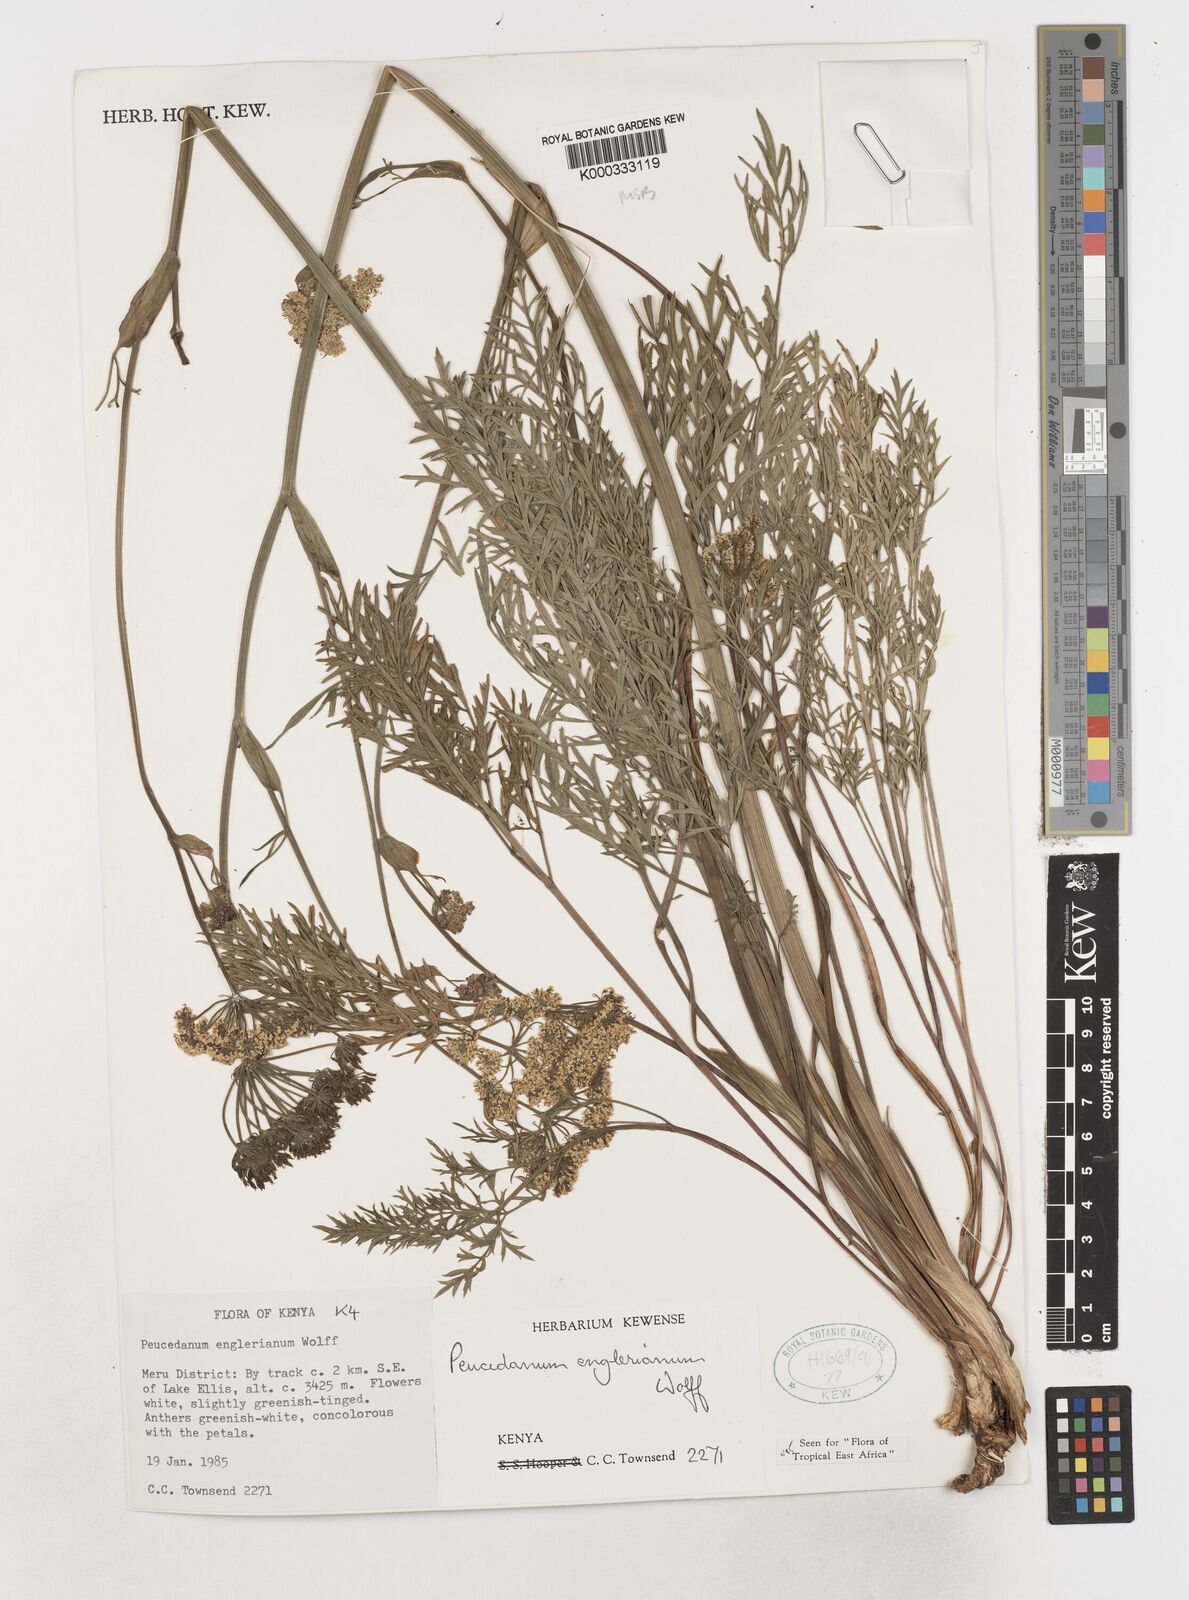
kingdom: Plantae
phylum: Tracheophyta
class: Magnoliopsida
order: Apiales
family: Apiaceae
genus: Oreoschimperella
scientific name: Oreoschimperella
